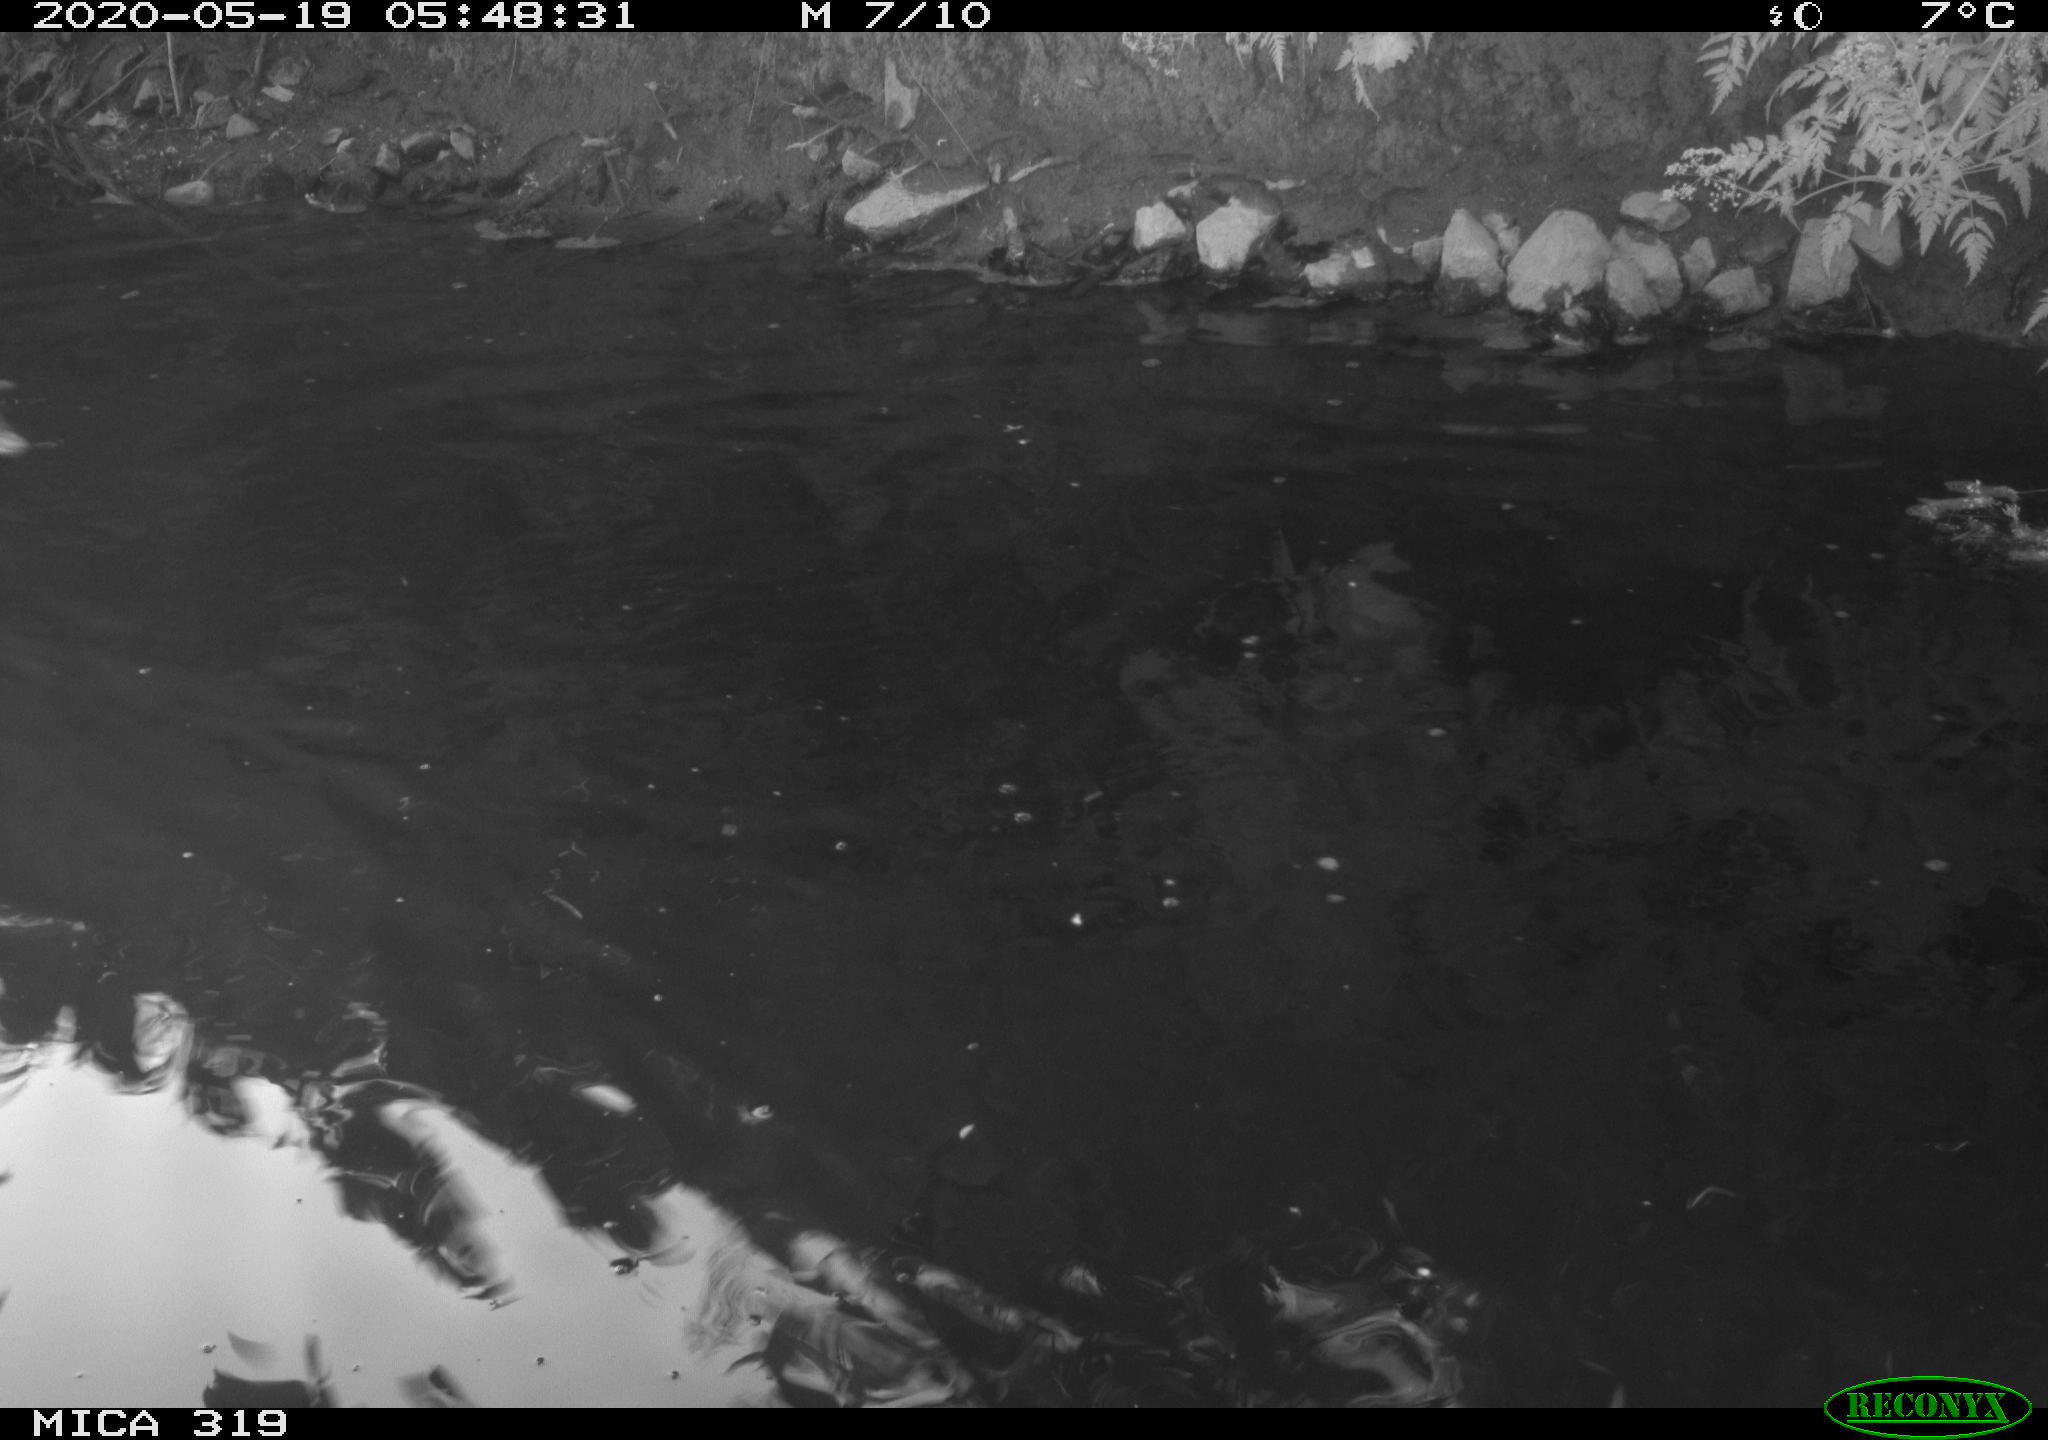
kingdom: Animalia
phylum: Chordata
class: Aves
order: Anseriformes
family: Anatidae
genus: Anas
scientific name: Anas platyrhynchos
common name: Mallard
